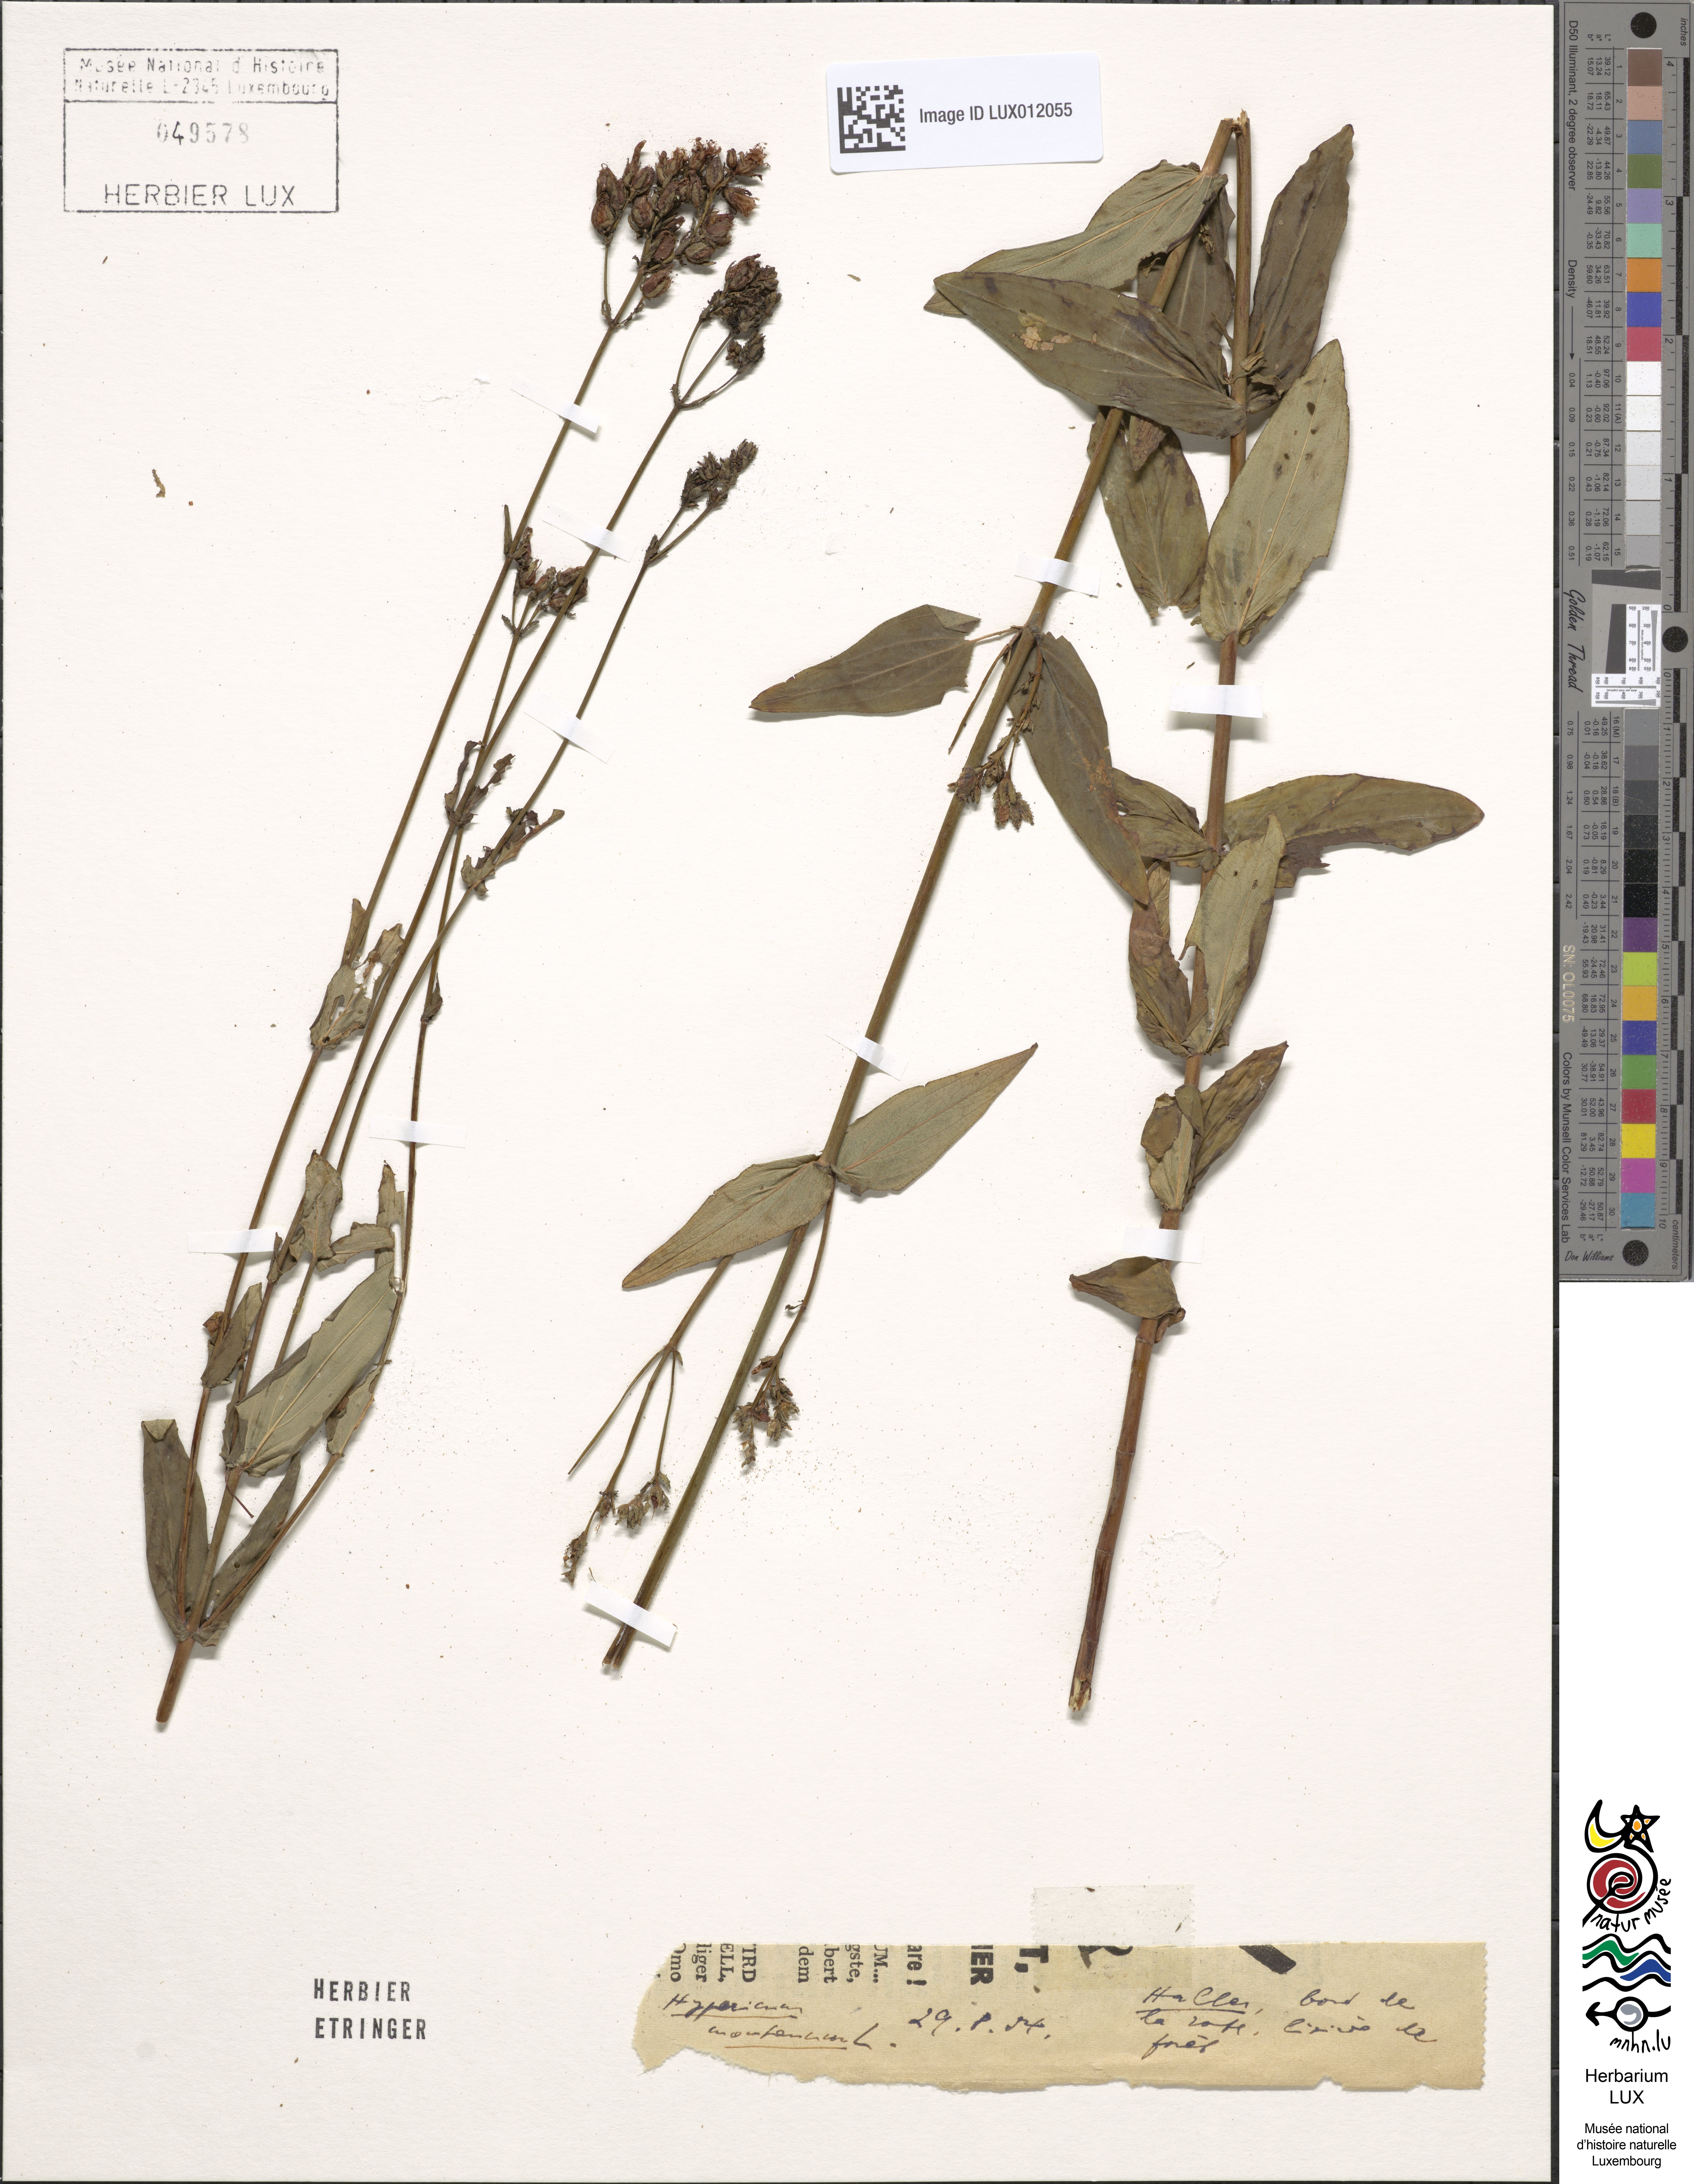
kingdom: Plantae
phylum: Tracheophyta
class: Magnoliopsida
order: Malpighiales
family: Hypericaceae
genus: Hypericum
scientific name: Hypericum montanum
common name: Pale st. john's-wort
